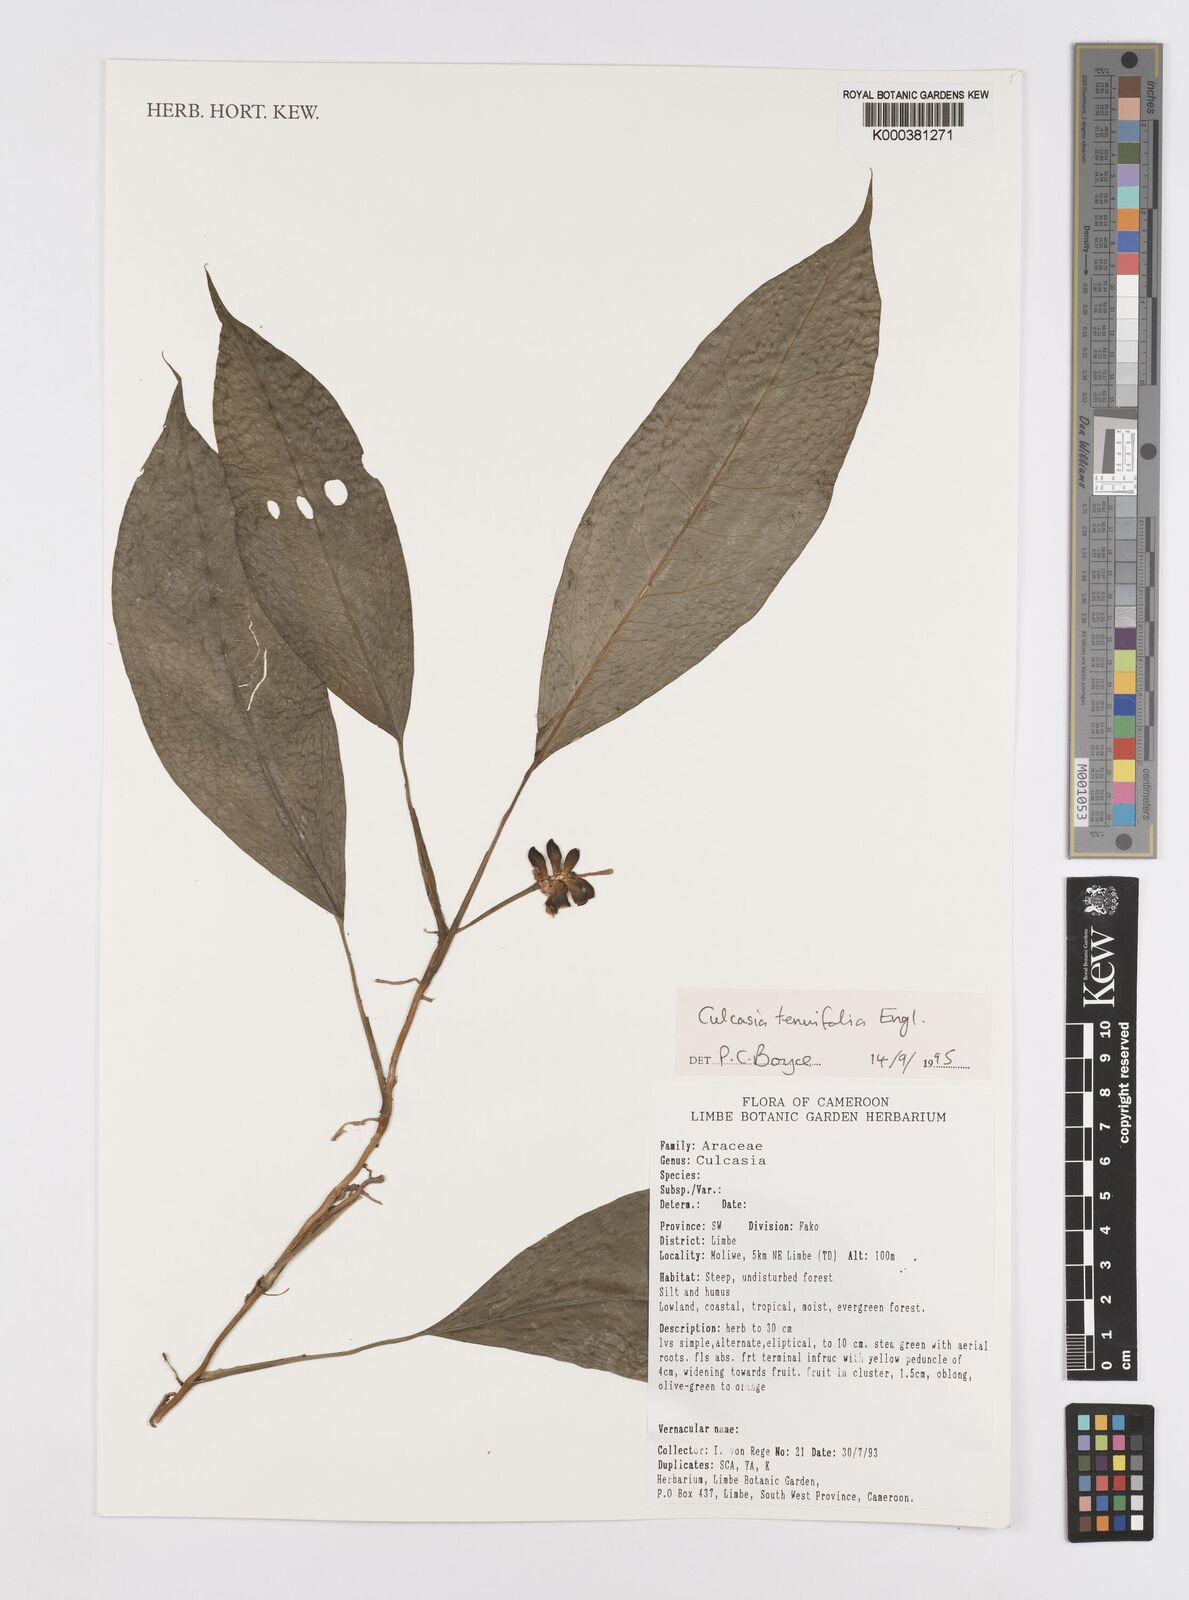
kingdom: Plantae
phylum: Tracheophyta
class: Liliopsida
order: Alismatales
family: Araceae
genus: Culcasia
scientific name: Culcasia tenuifolia
